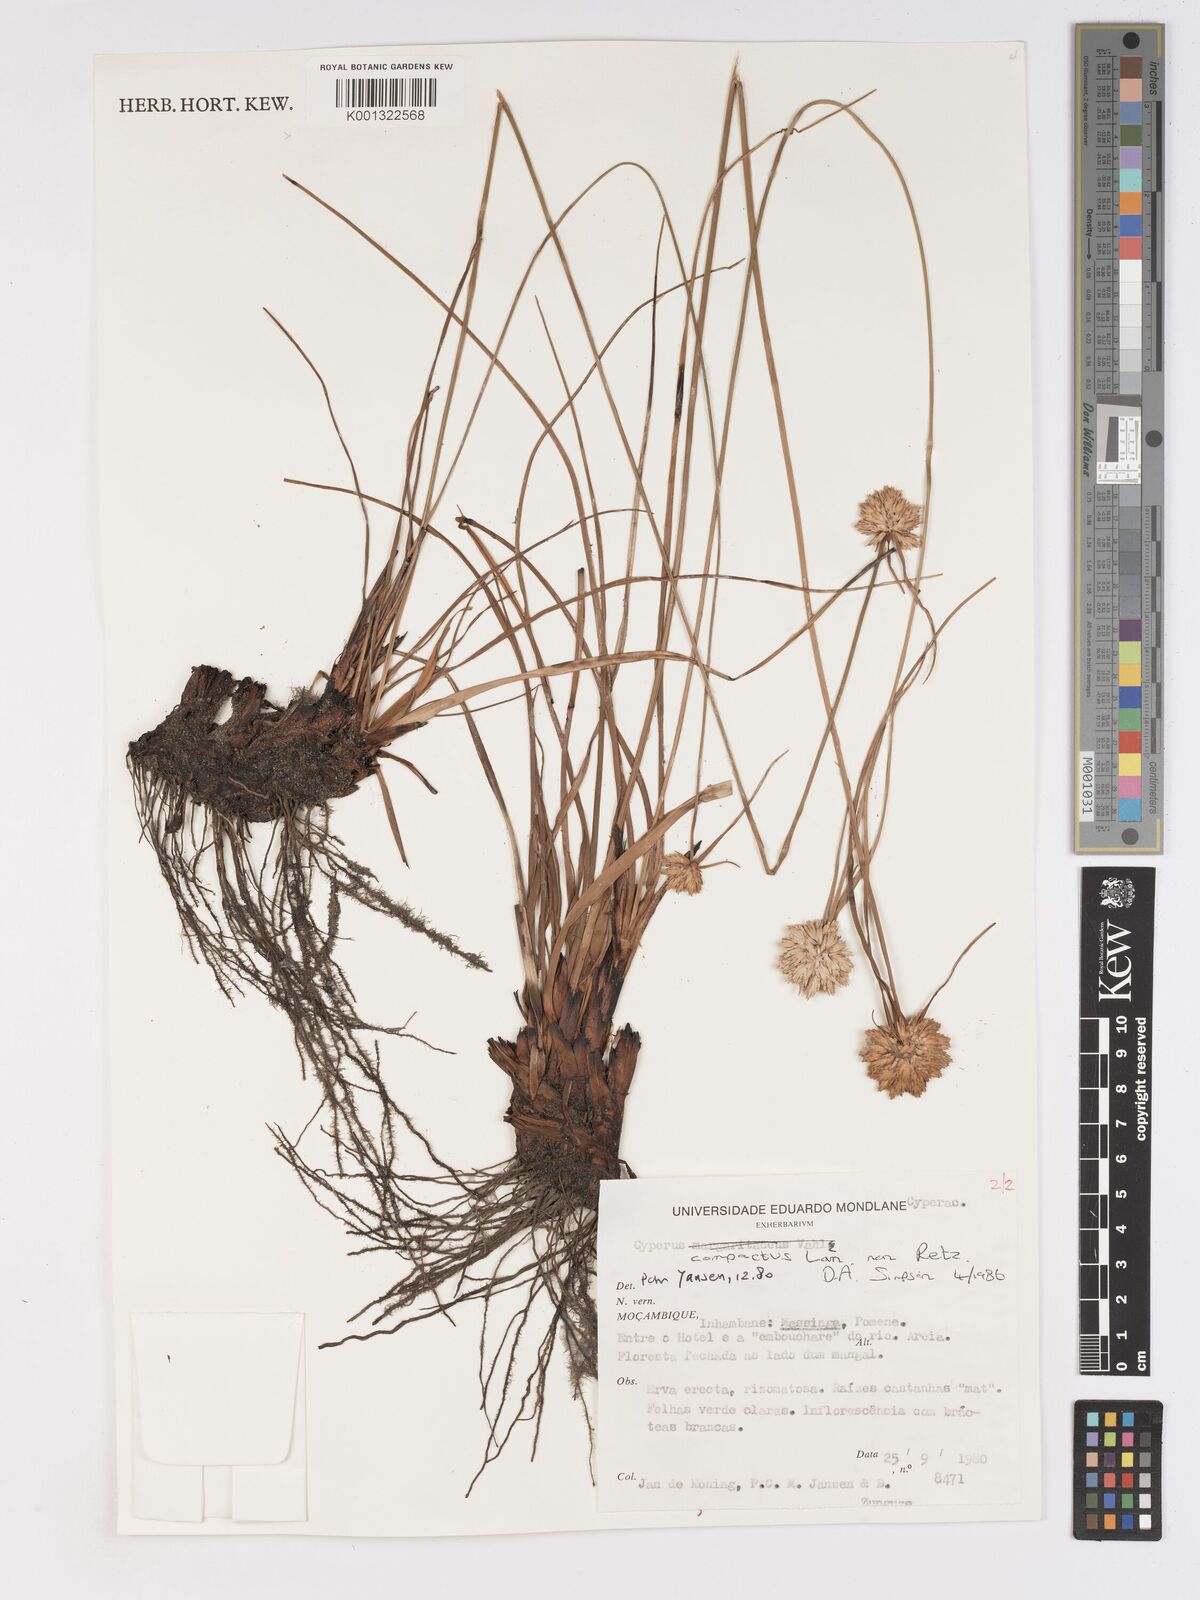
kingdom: Plantae
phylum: Tracheophyta
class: Liliopsida
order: Poales
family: Cyperaceae
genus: Cyperus
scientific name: Cyperus niveus
